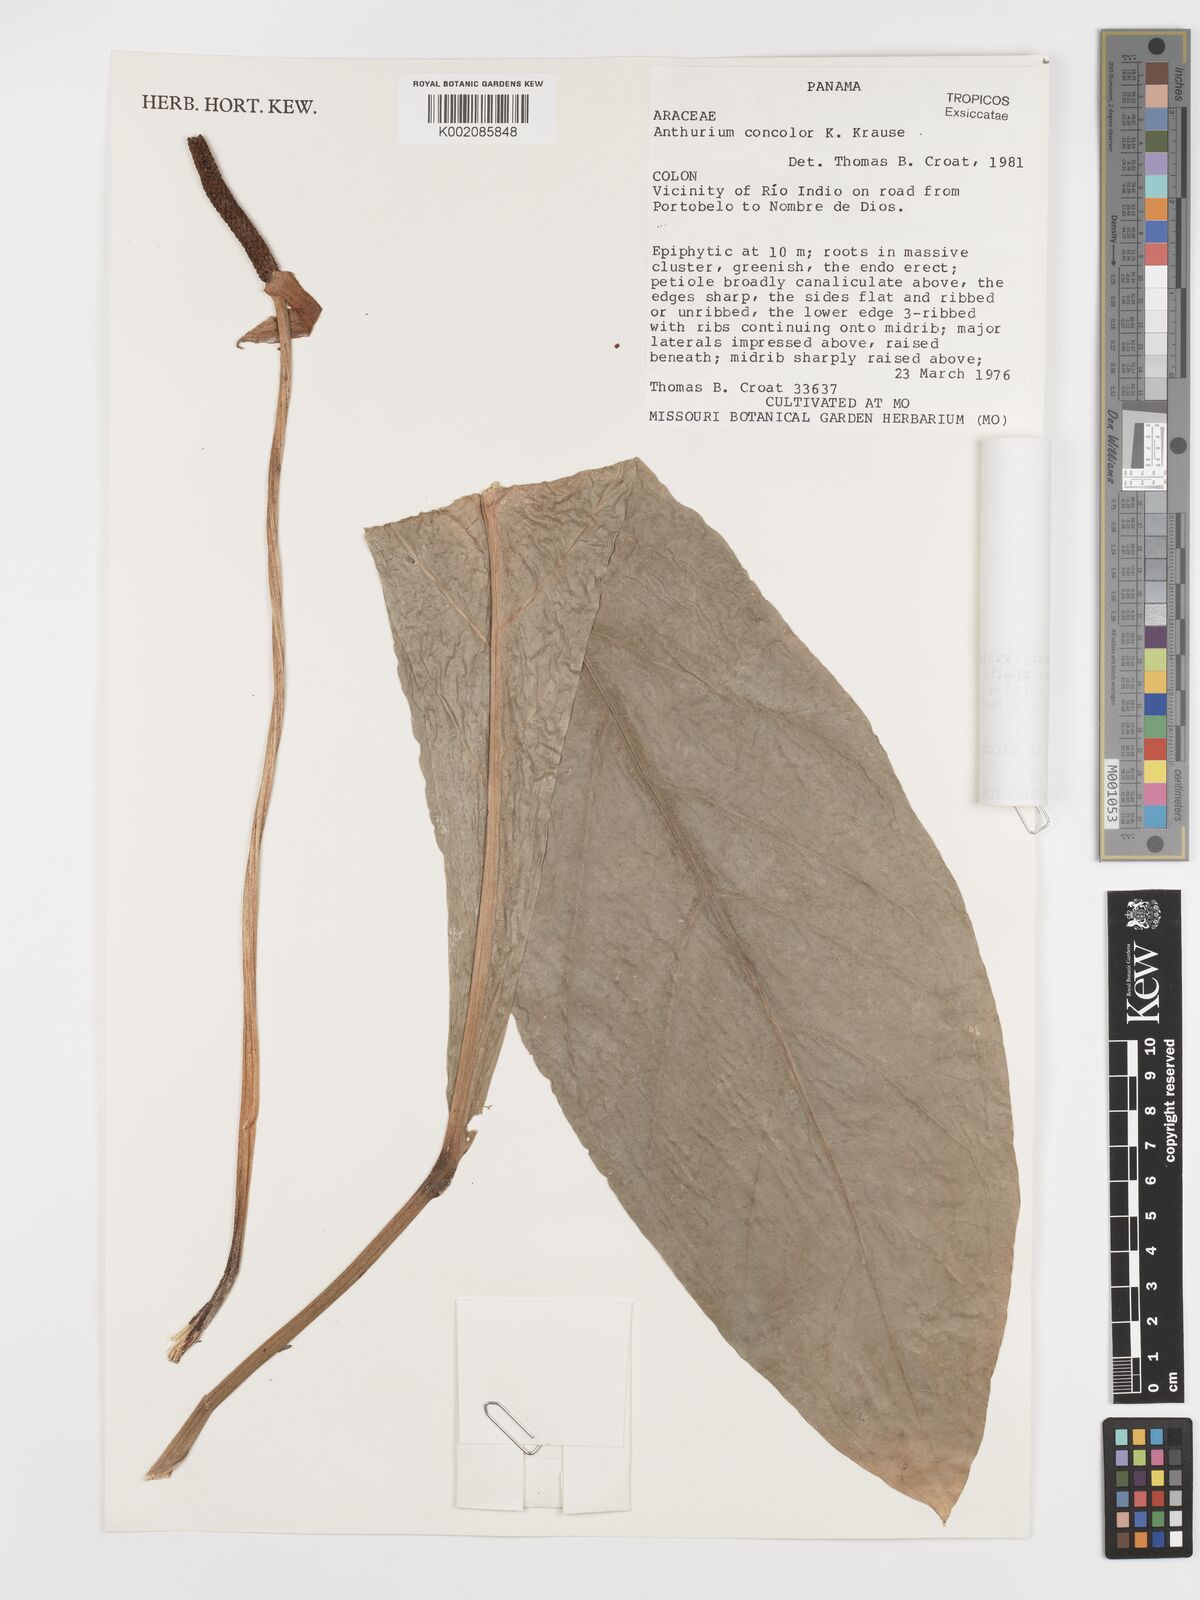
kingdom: Plantae
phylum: Tracheophyta
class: Liliopsida
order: Alismatales
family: Araceae
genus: Anthurium
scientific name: Anthurium concolor
